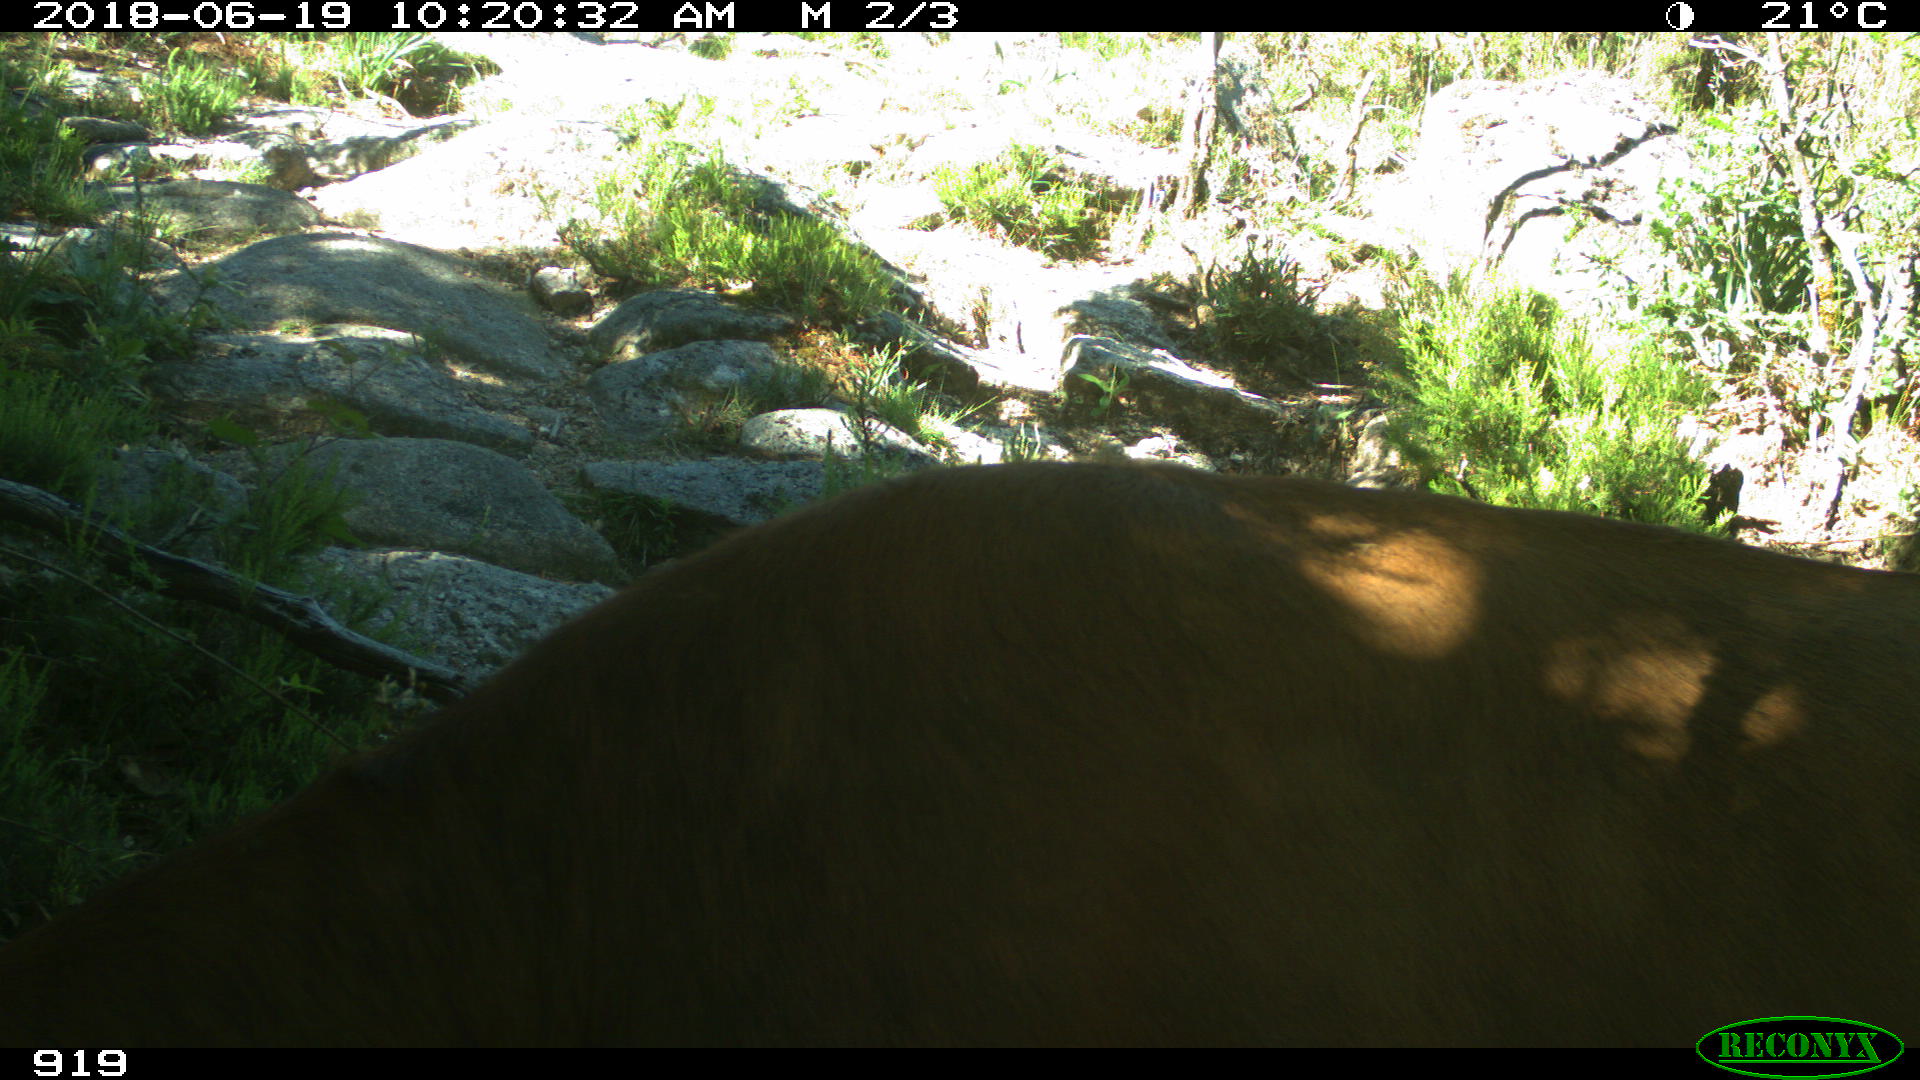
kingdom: Animalia
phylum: Chordata
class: Mammalia
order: Artiodactyla
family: Bovidae
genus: Bos
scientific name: Bos taurus
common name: Domesticated cattle
